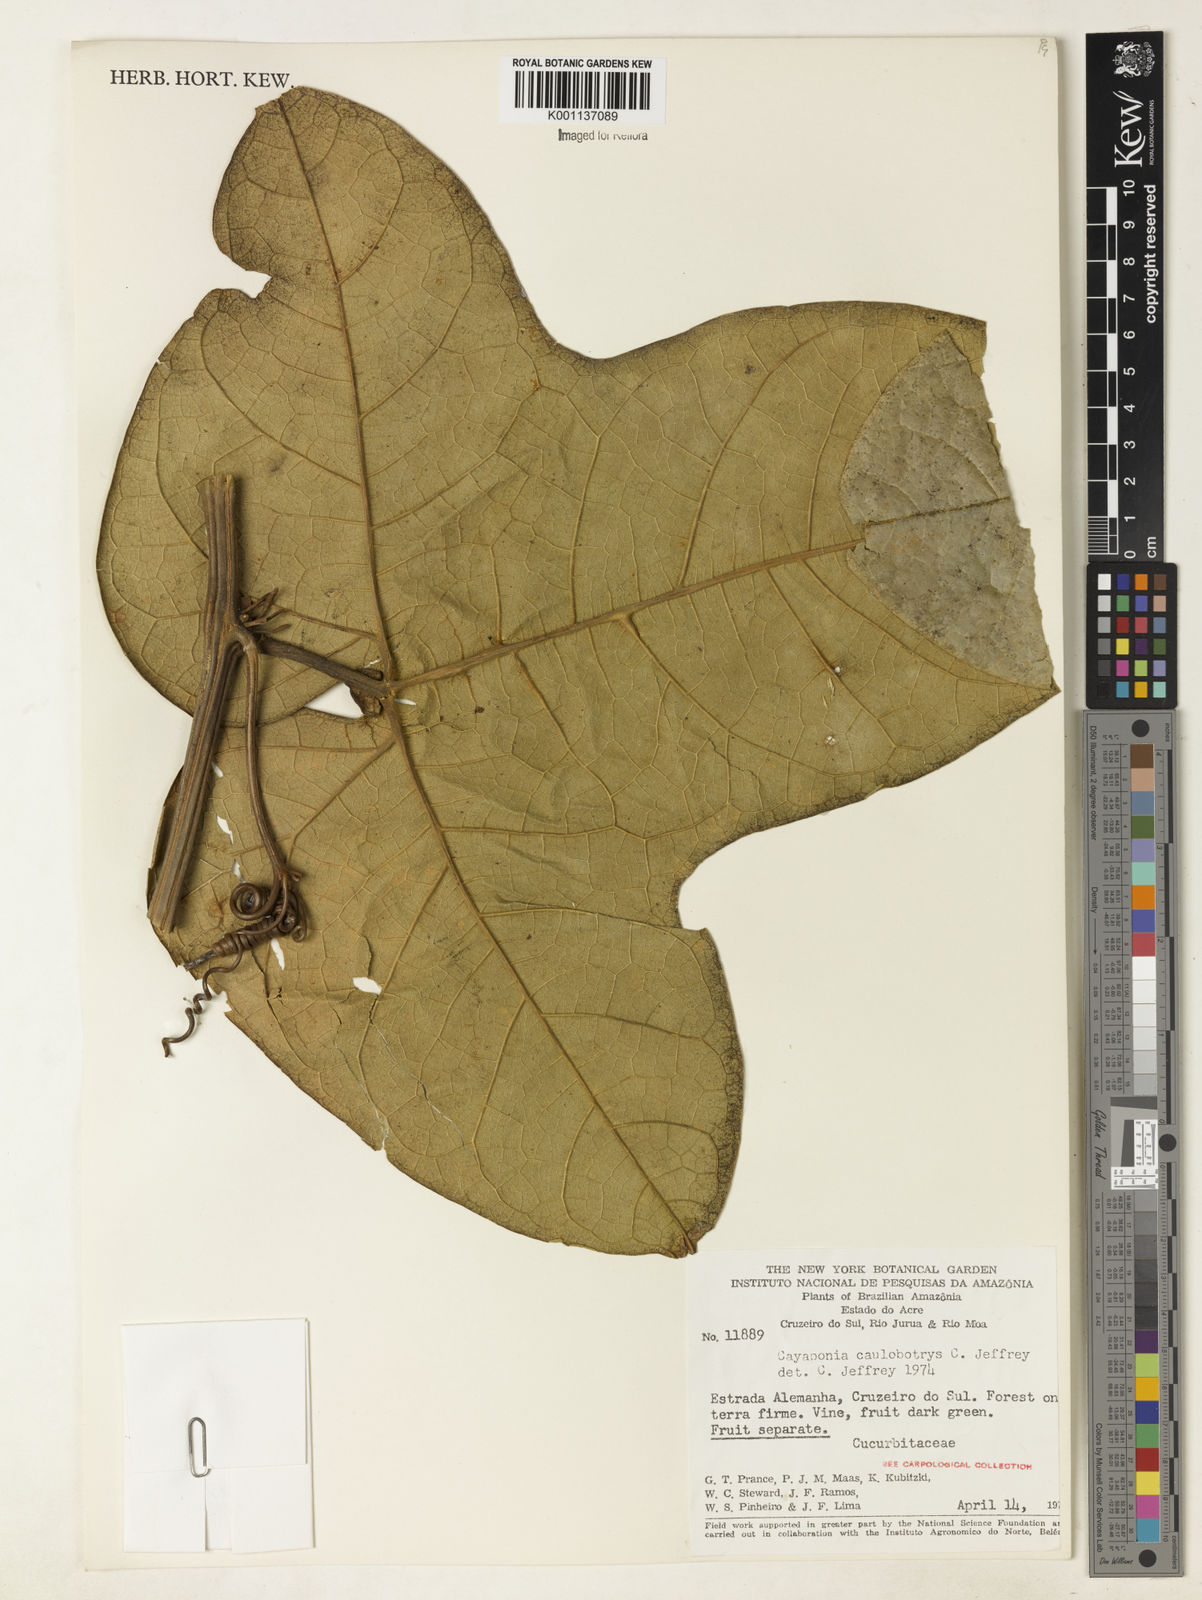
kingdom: Plantae
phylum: Tracheophyta
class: Magnoliopsida
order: Cucurbitales
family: Cucurbitaceae
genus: Cayaponia
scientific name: Cayaponia caulobotrys
